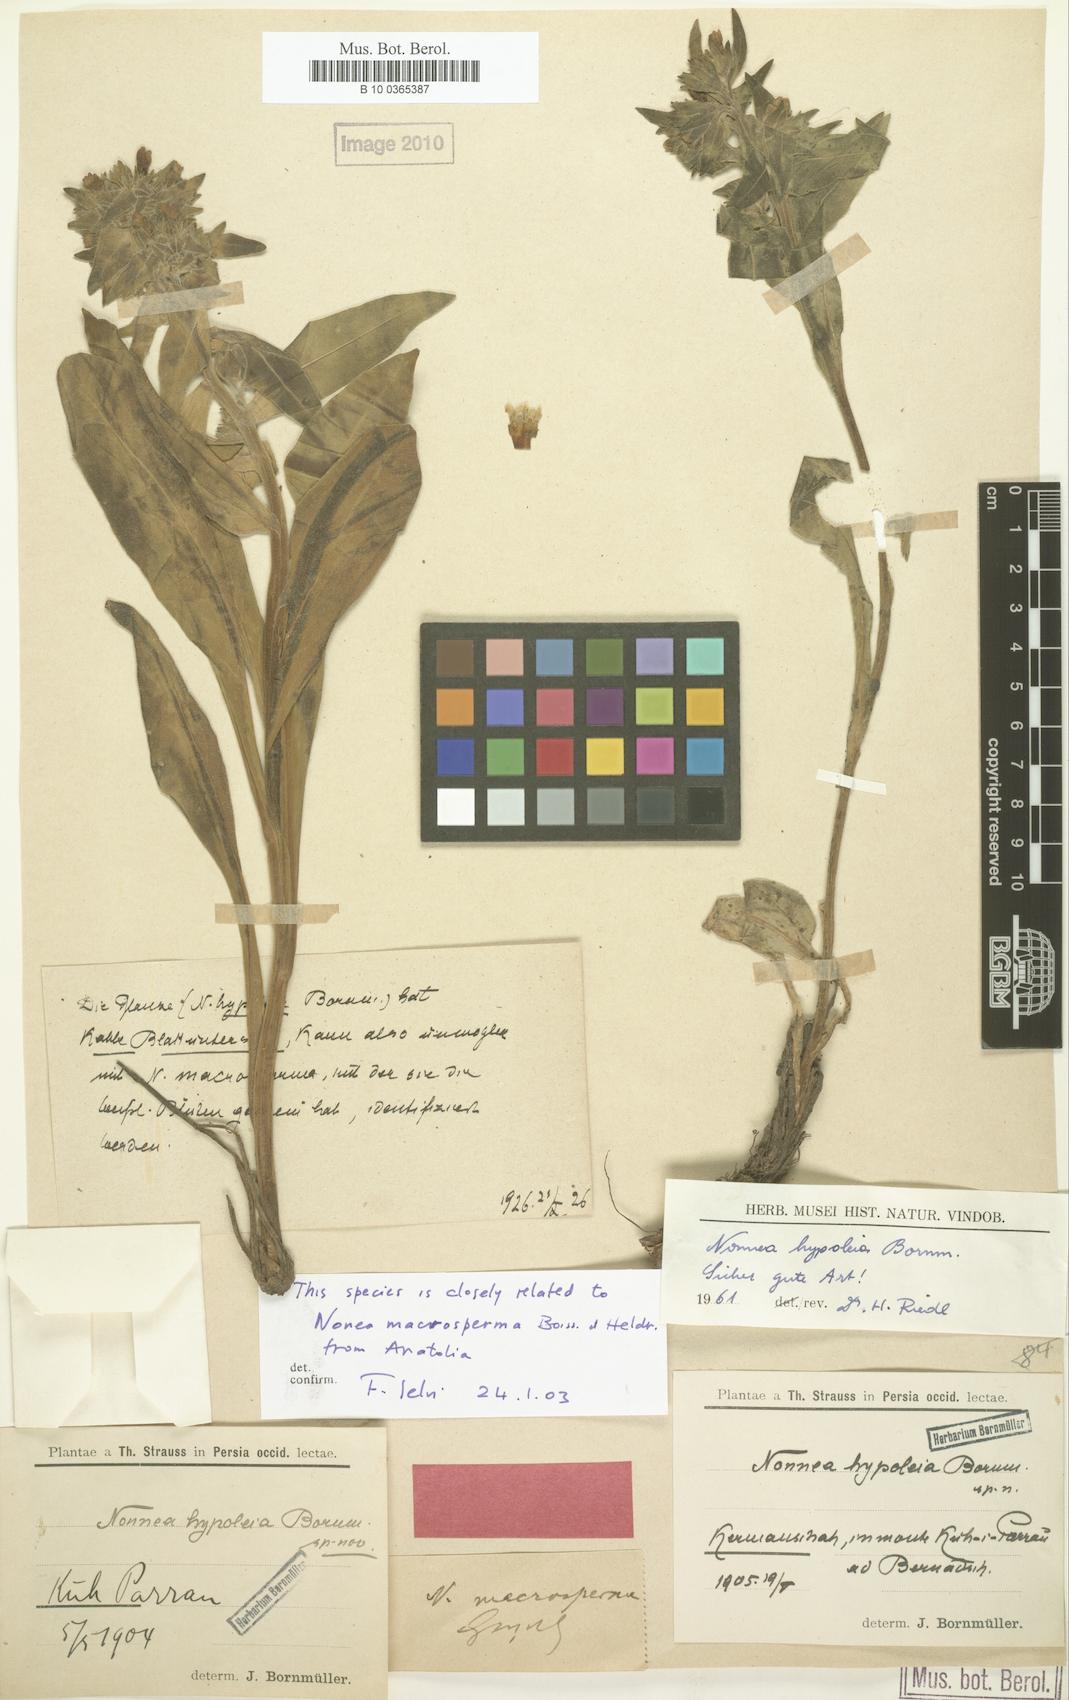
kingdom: Plantae
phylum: Tracheophyta
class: Magnoliopsida
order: Boraginales
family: Boraginaceae
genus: Nonea
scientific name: Nonea hypoleia
